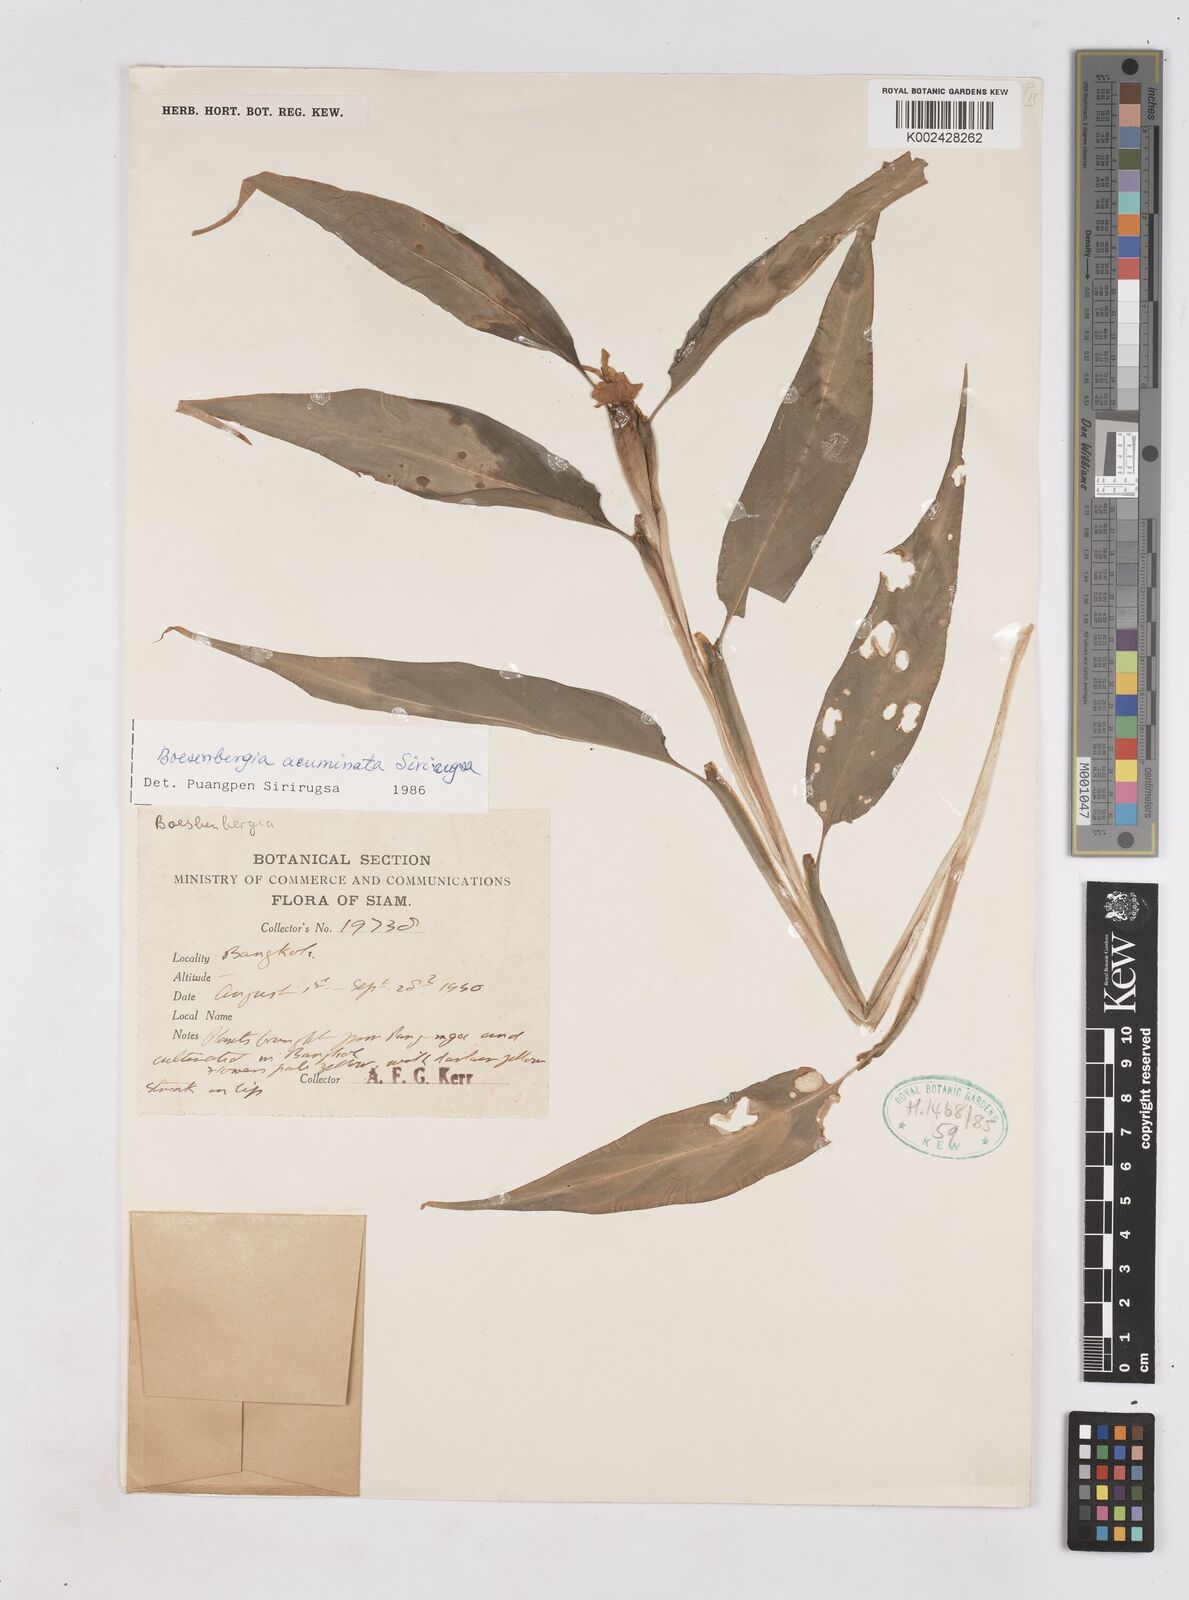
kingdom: Plantae
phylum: Tracheophyta
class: Liliopsida
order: Zingiberales
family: Zingiberaceae
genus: Boesenbergia
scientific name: Boesenbergia ochroleuca
